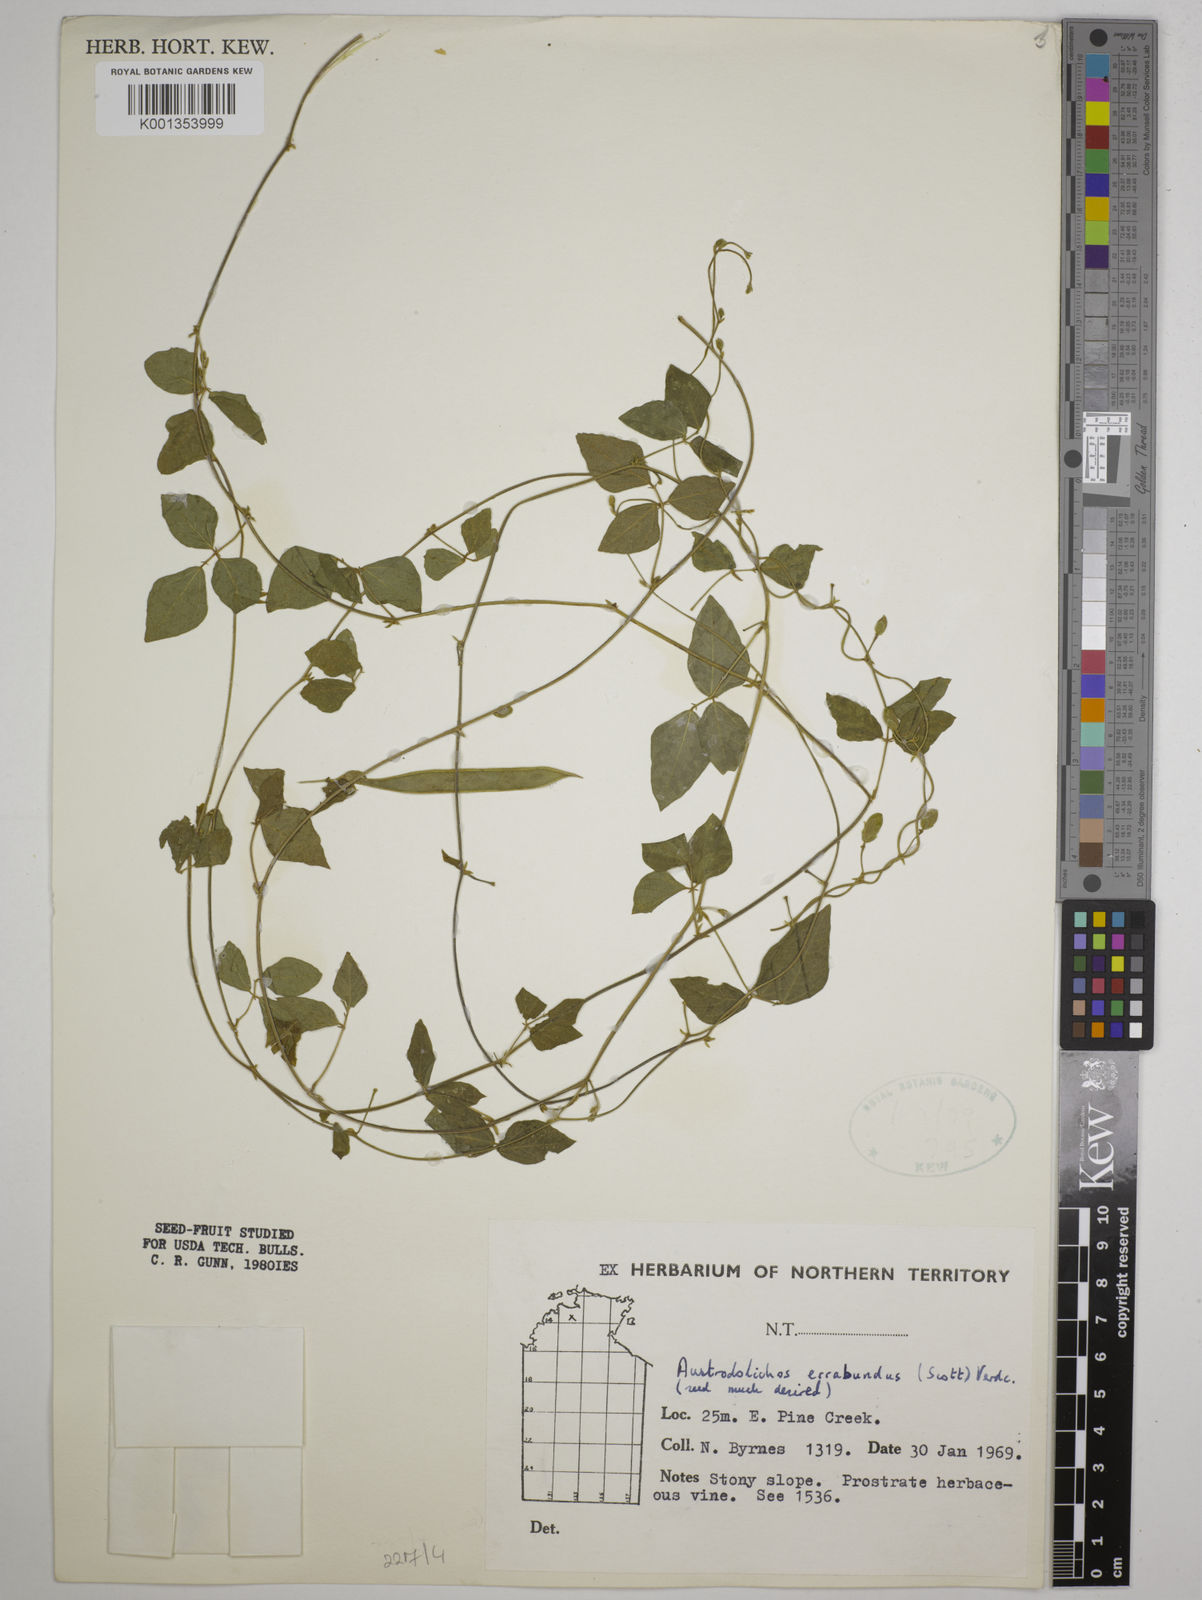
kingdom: Plantae
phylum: Tracheophyta
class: Magnoliopsida
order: Fabales
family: Fabaceae
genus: Austrodolichos
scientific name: Austrodolichos errabundus
